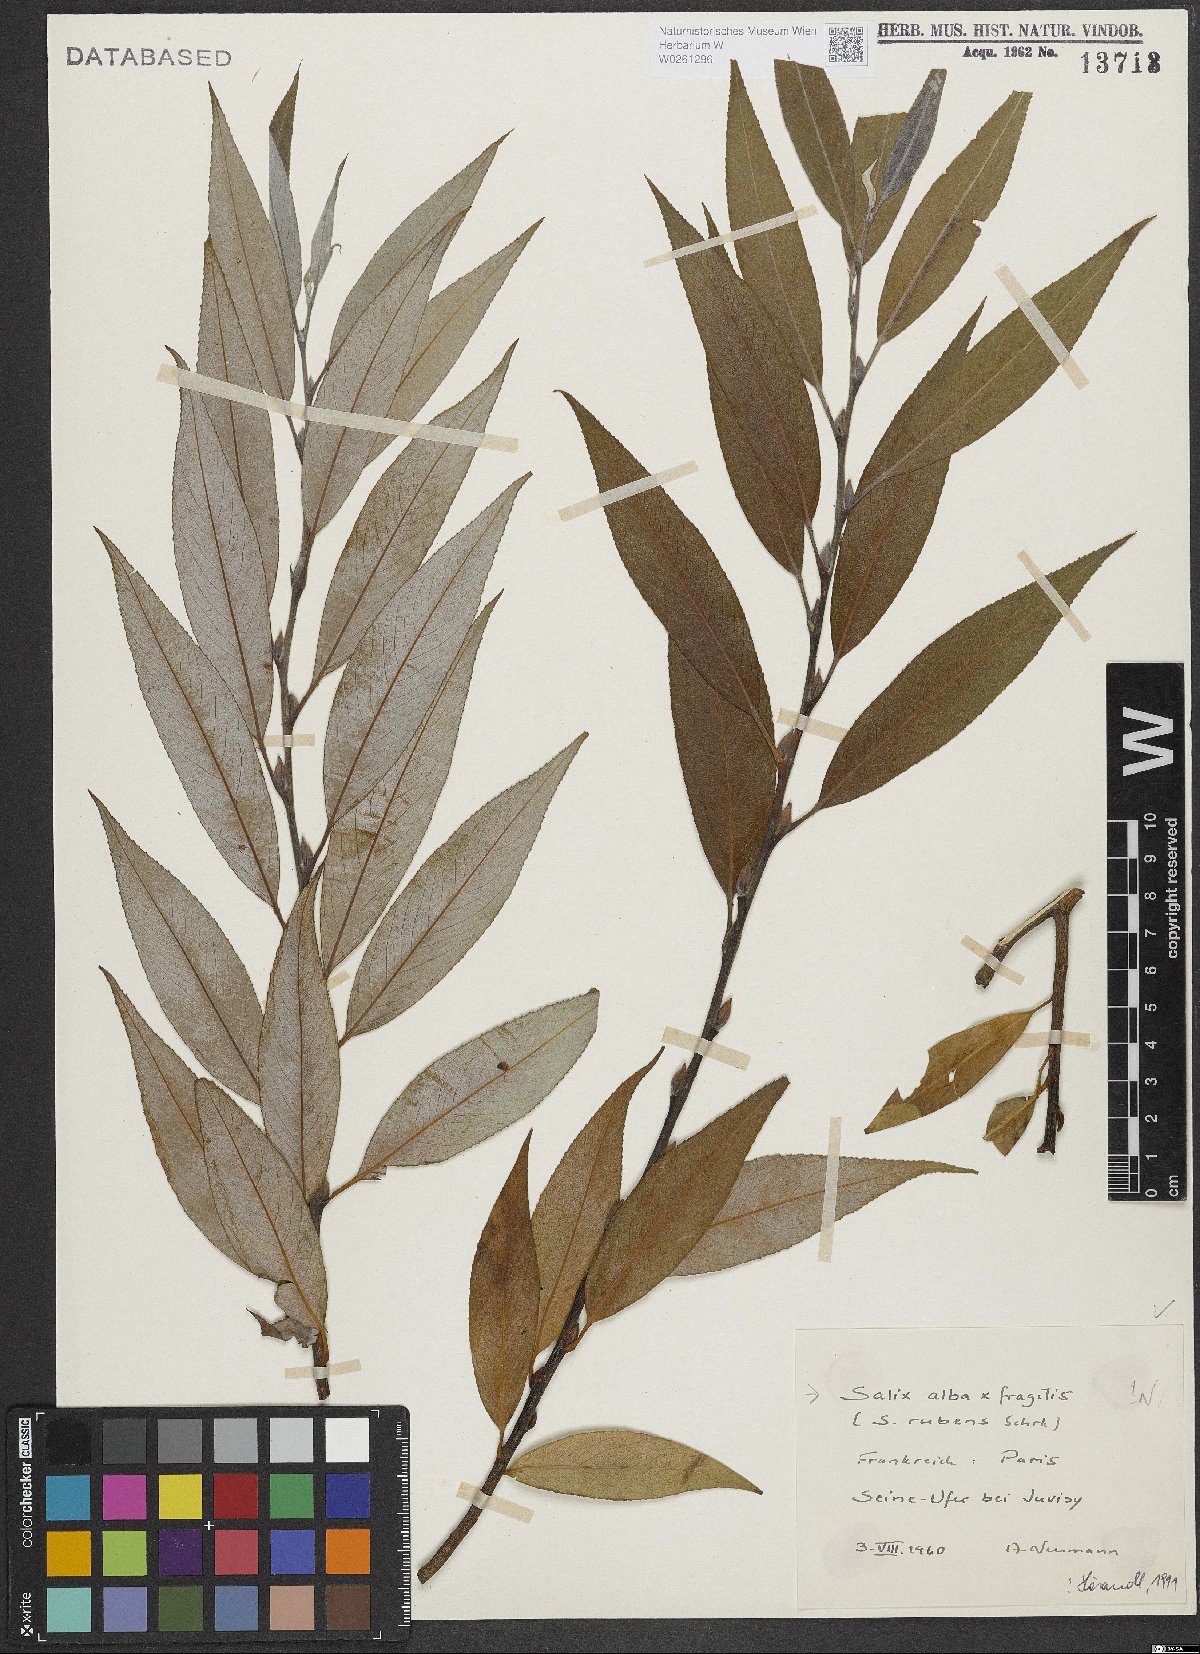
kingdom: Plantae
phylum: Tracheophyta
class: Magnoliopsida
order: Malpighiales
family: Salicaceae
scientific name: Salicaceae
